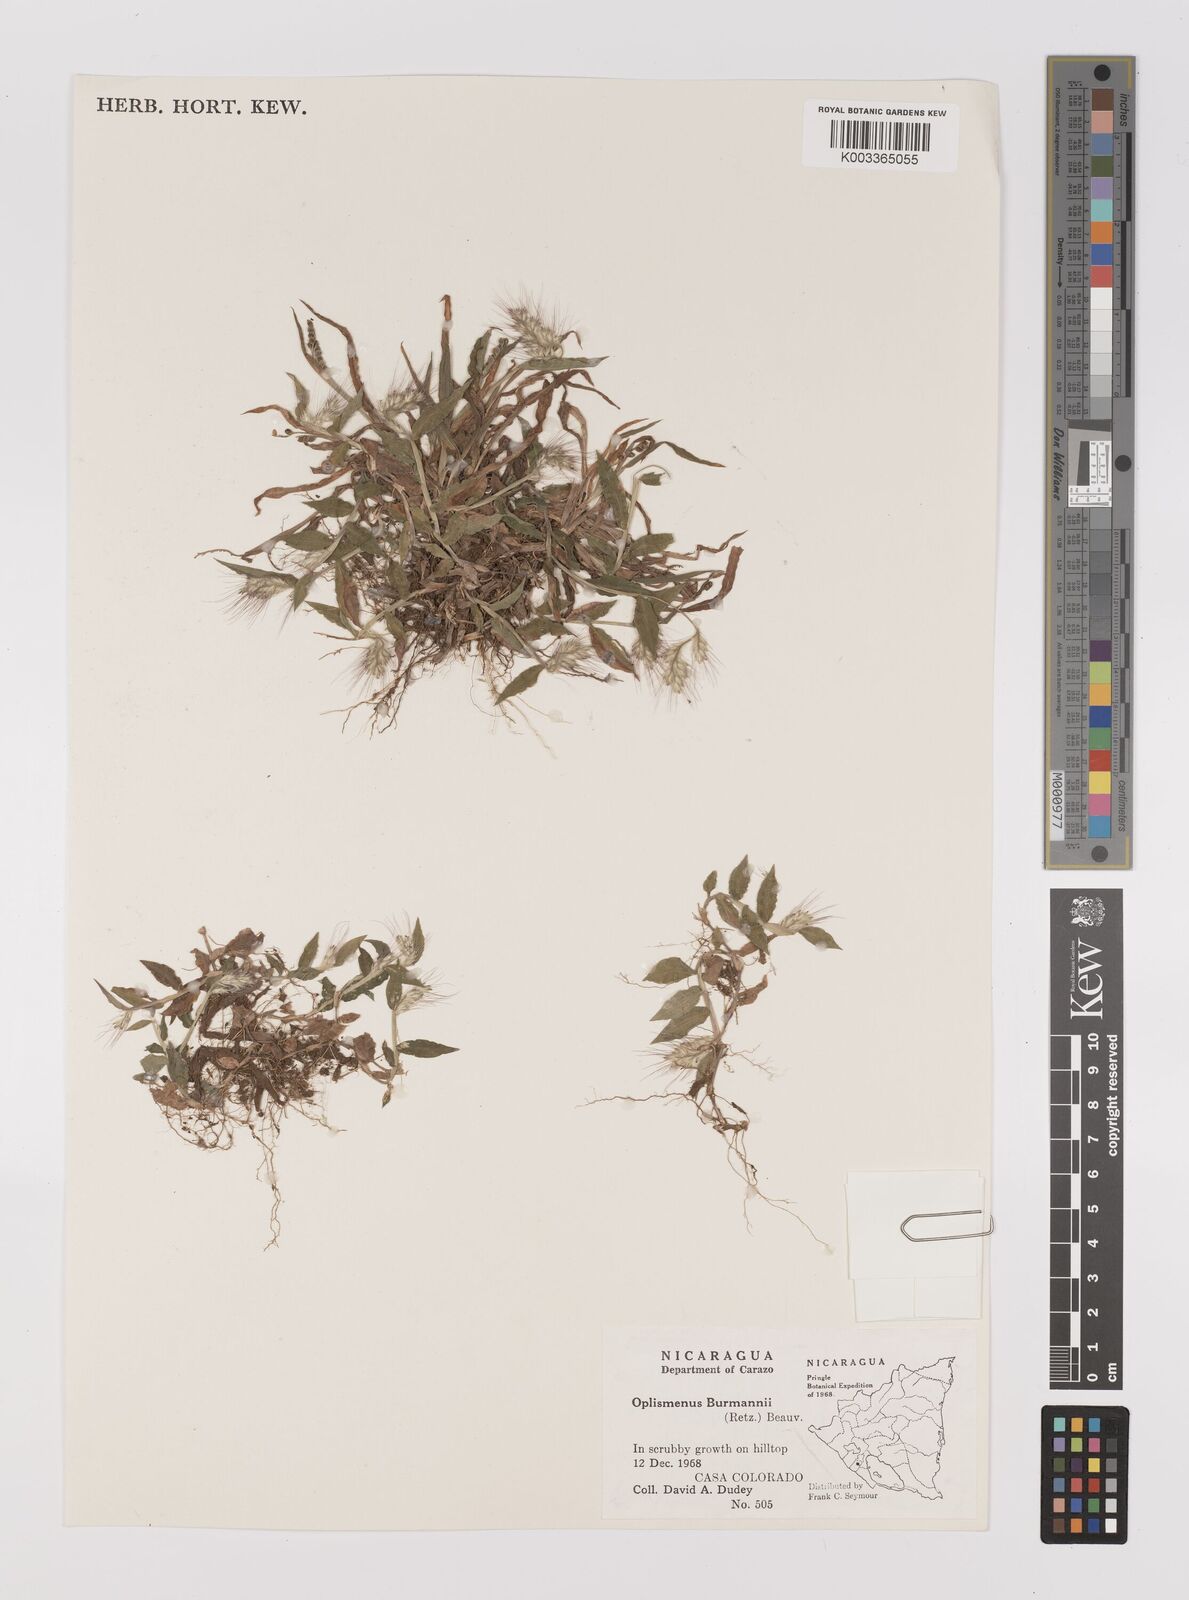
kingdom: Plantae
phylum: Tracheophyta
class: Liliopsida
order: Poales
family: Poaceae
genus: Oplismenus
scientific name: Oplismenus burmanni
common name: Burmann's basketgrass
